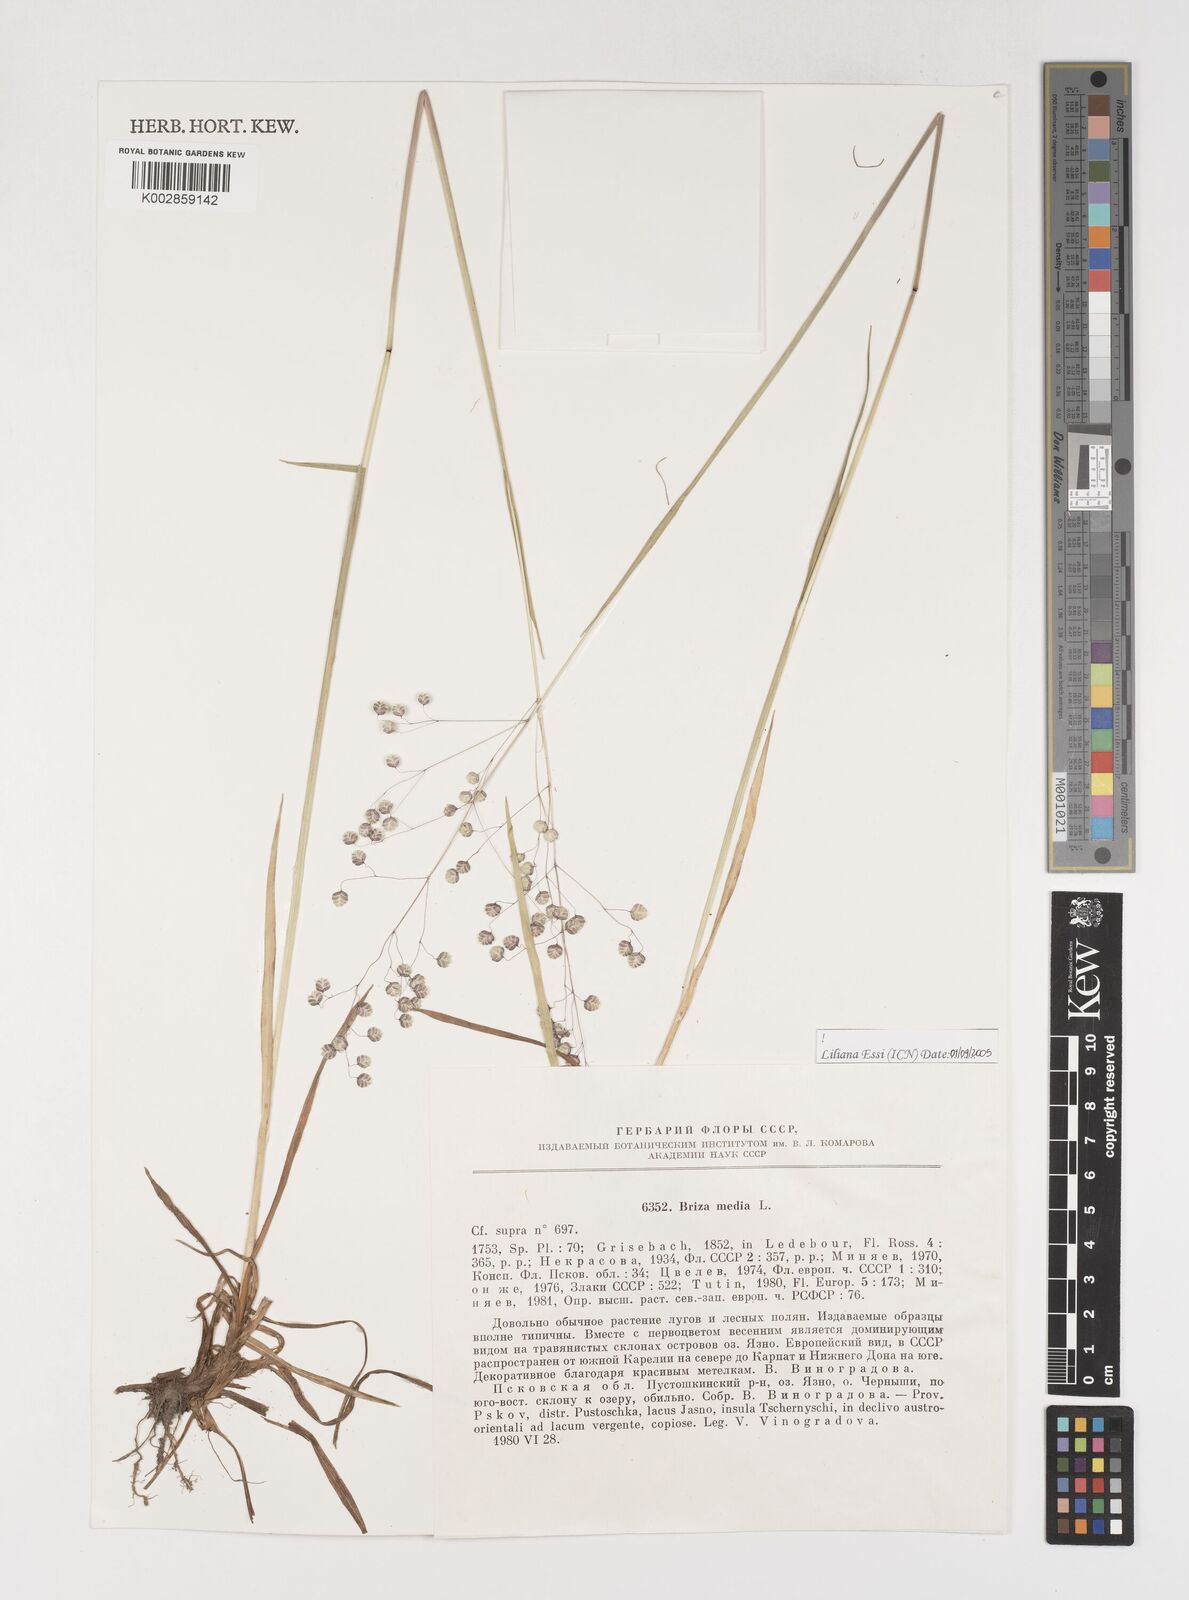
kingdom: Plantae
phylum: Tracheophyta
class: Liliopsida
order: Poales
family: Poaceae
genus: Briza
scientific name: Briza media
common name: Quaking grass
